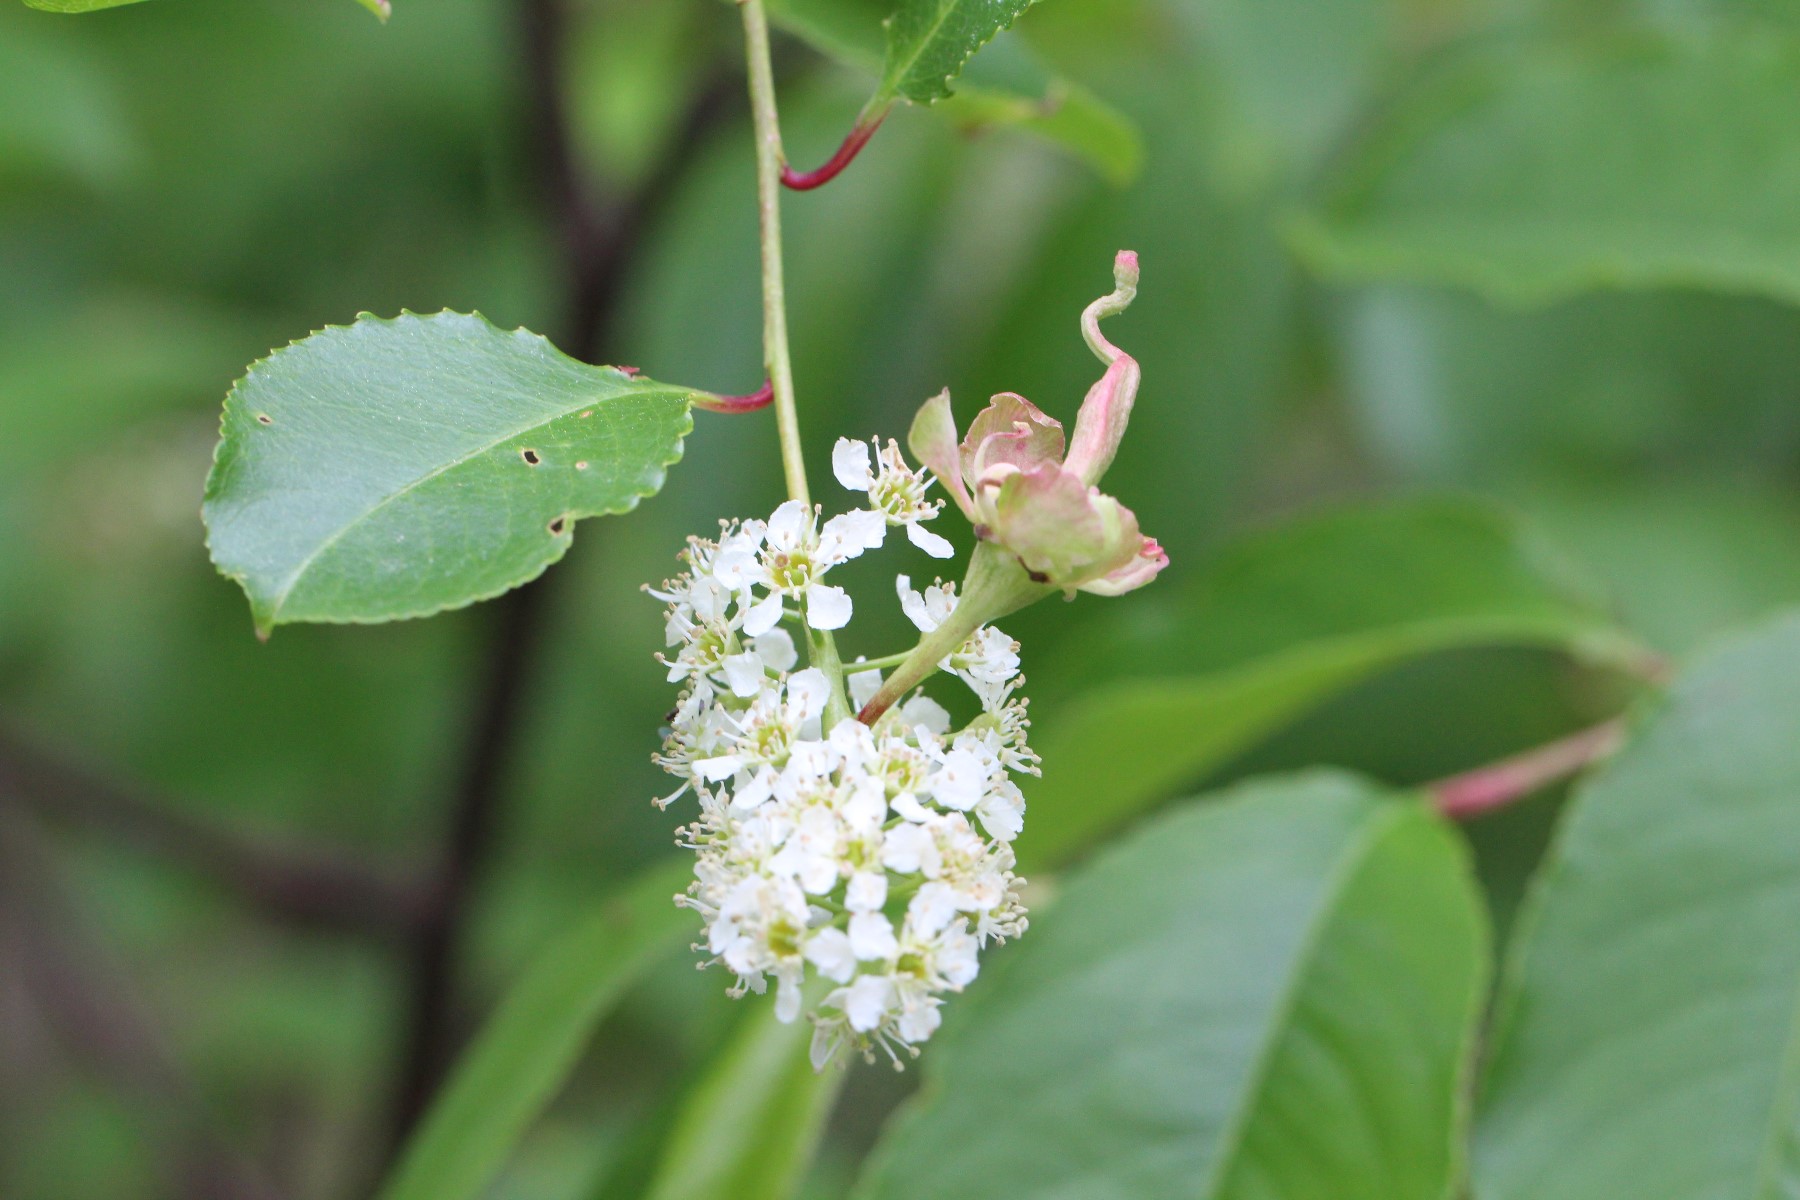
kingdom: Fungi
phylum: Ascomycota
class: Taphrinomycetes
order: Taphrinales
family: Taphrinaceae
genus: Taphrina
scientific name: Taphrina padi
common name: Bird cherry pocket
